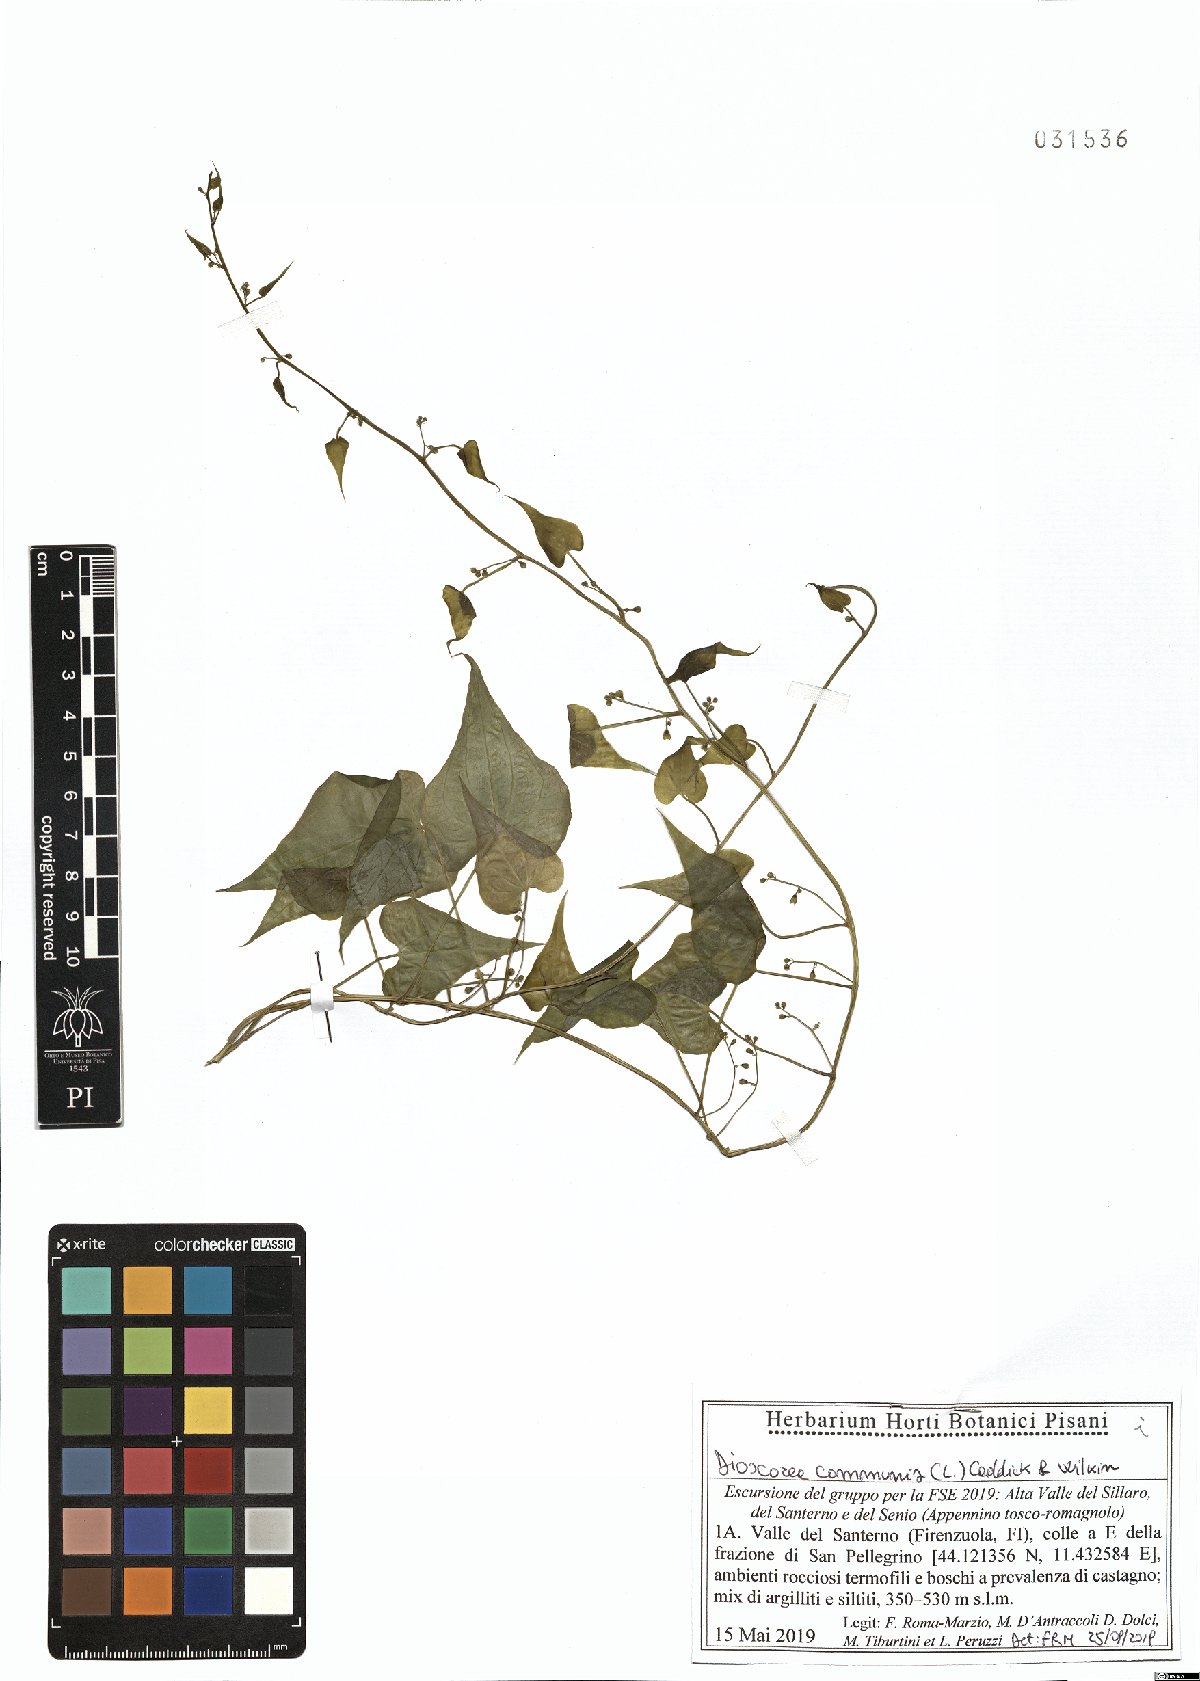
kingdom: Plantae
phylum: Tracheophyta
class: Liliopsida
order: Dioscoreales
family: Dioscoreaceae
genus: Dioscorea
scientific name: Dioscorea communis
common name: Black-bindweed
